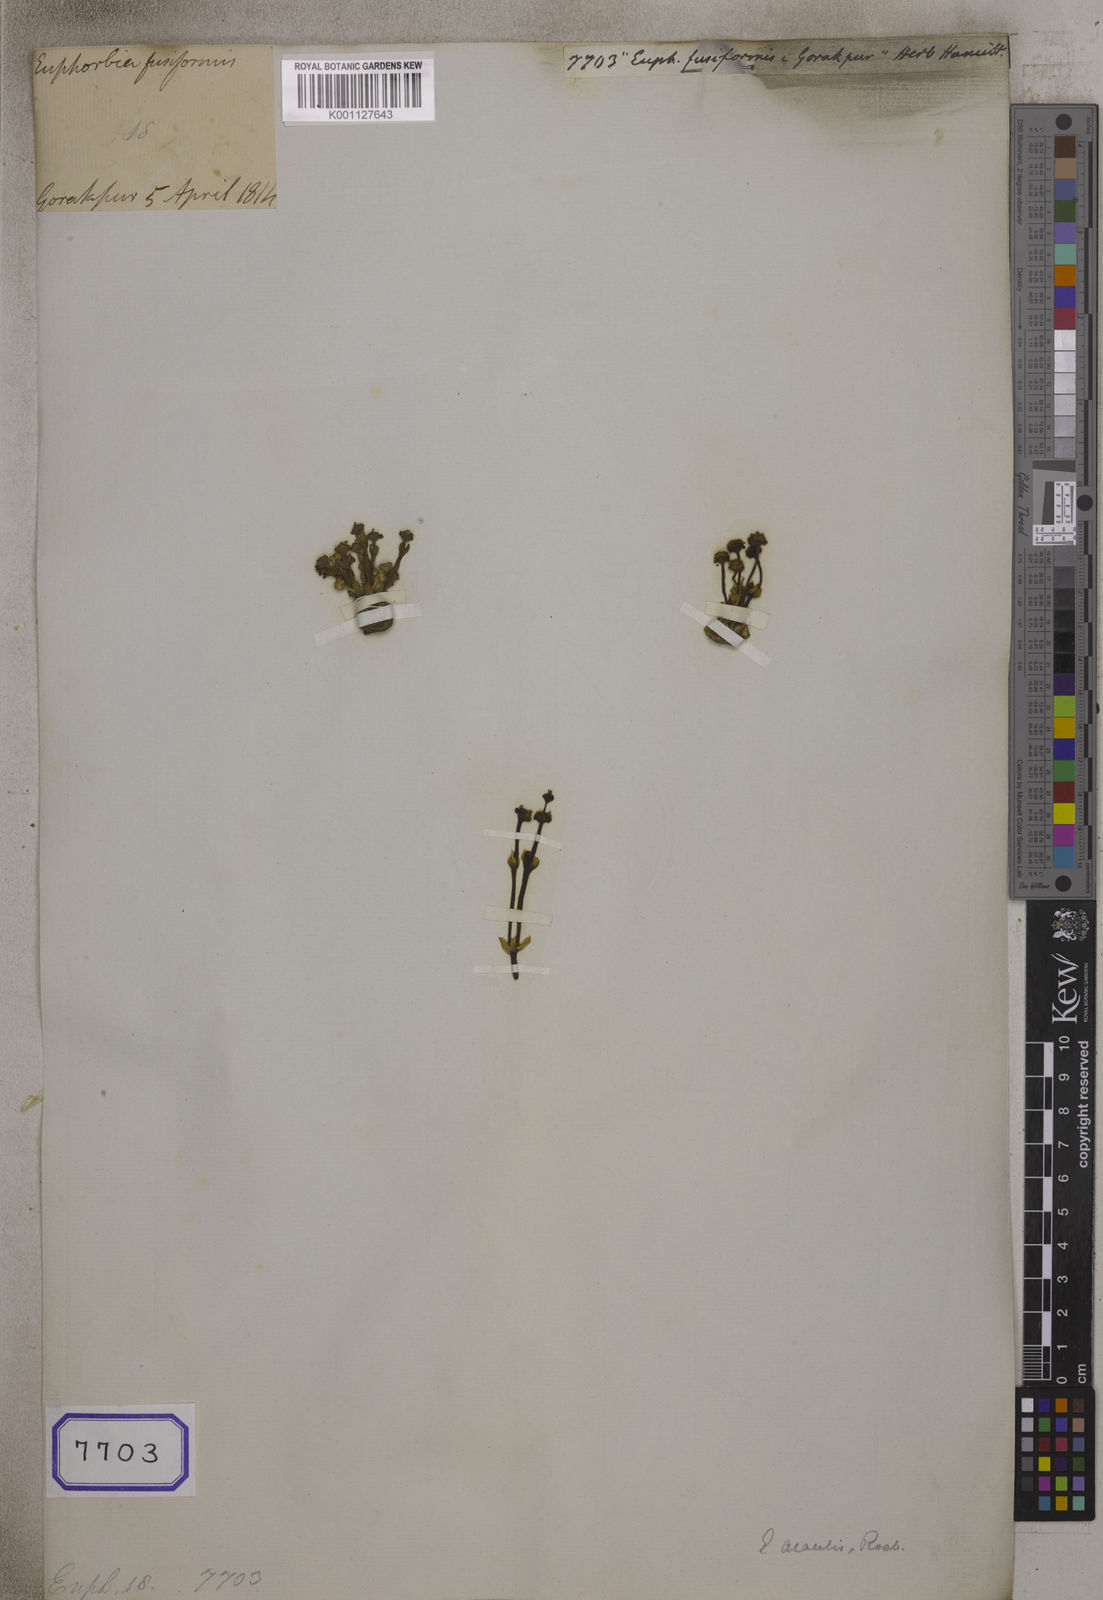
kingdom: Plantae
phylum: Tracheophyta
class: Magnoliopsida
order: Malpighiales
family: Euphorbiaceae
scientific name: Euphorbiaceae
